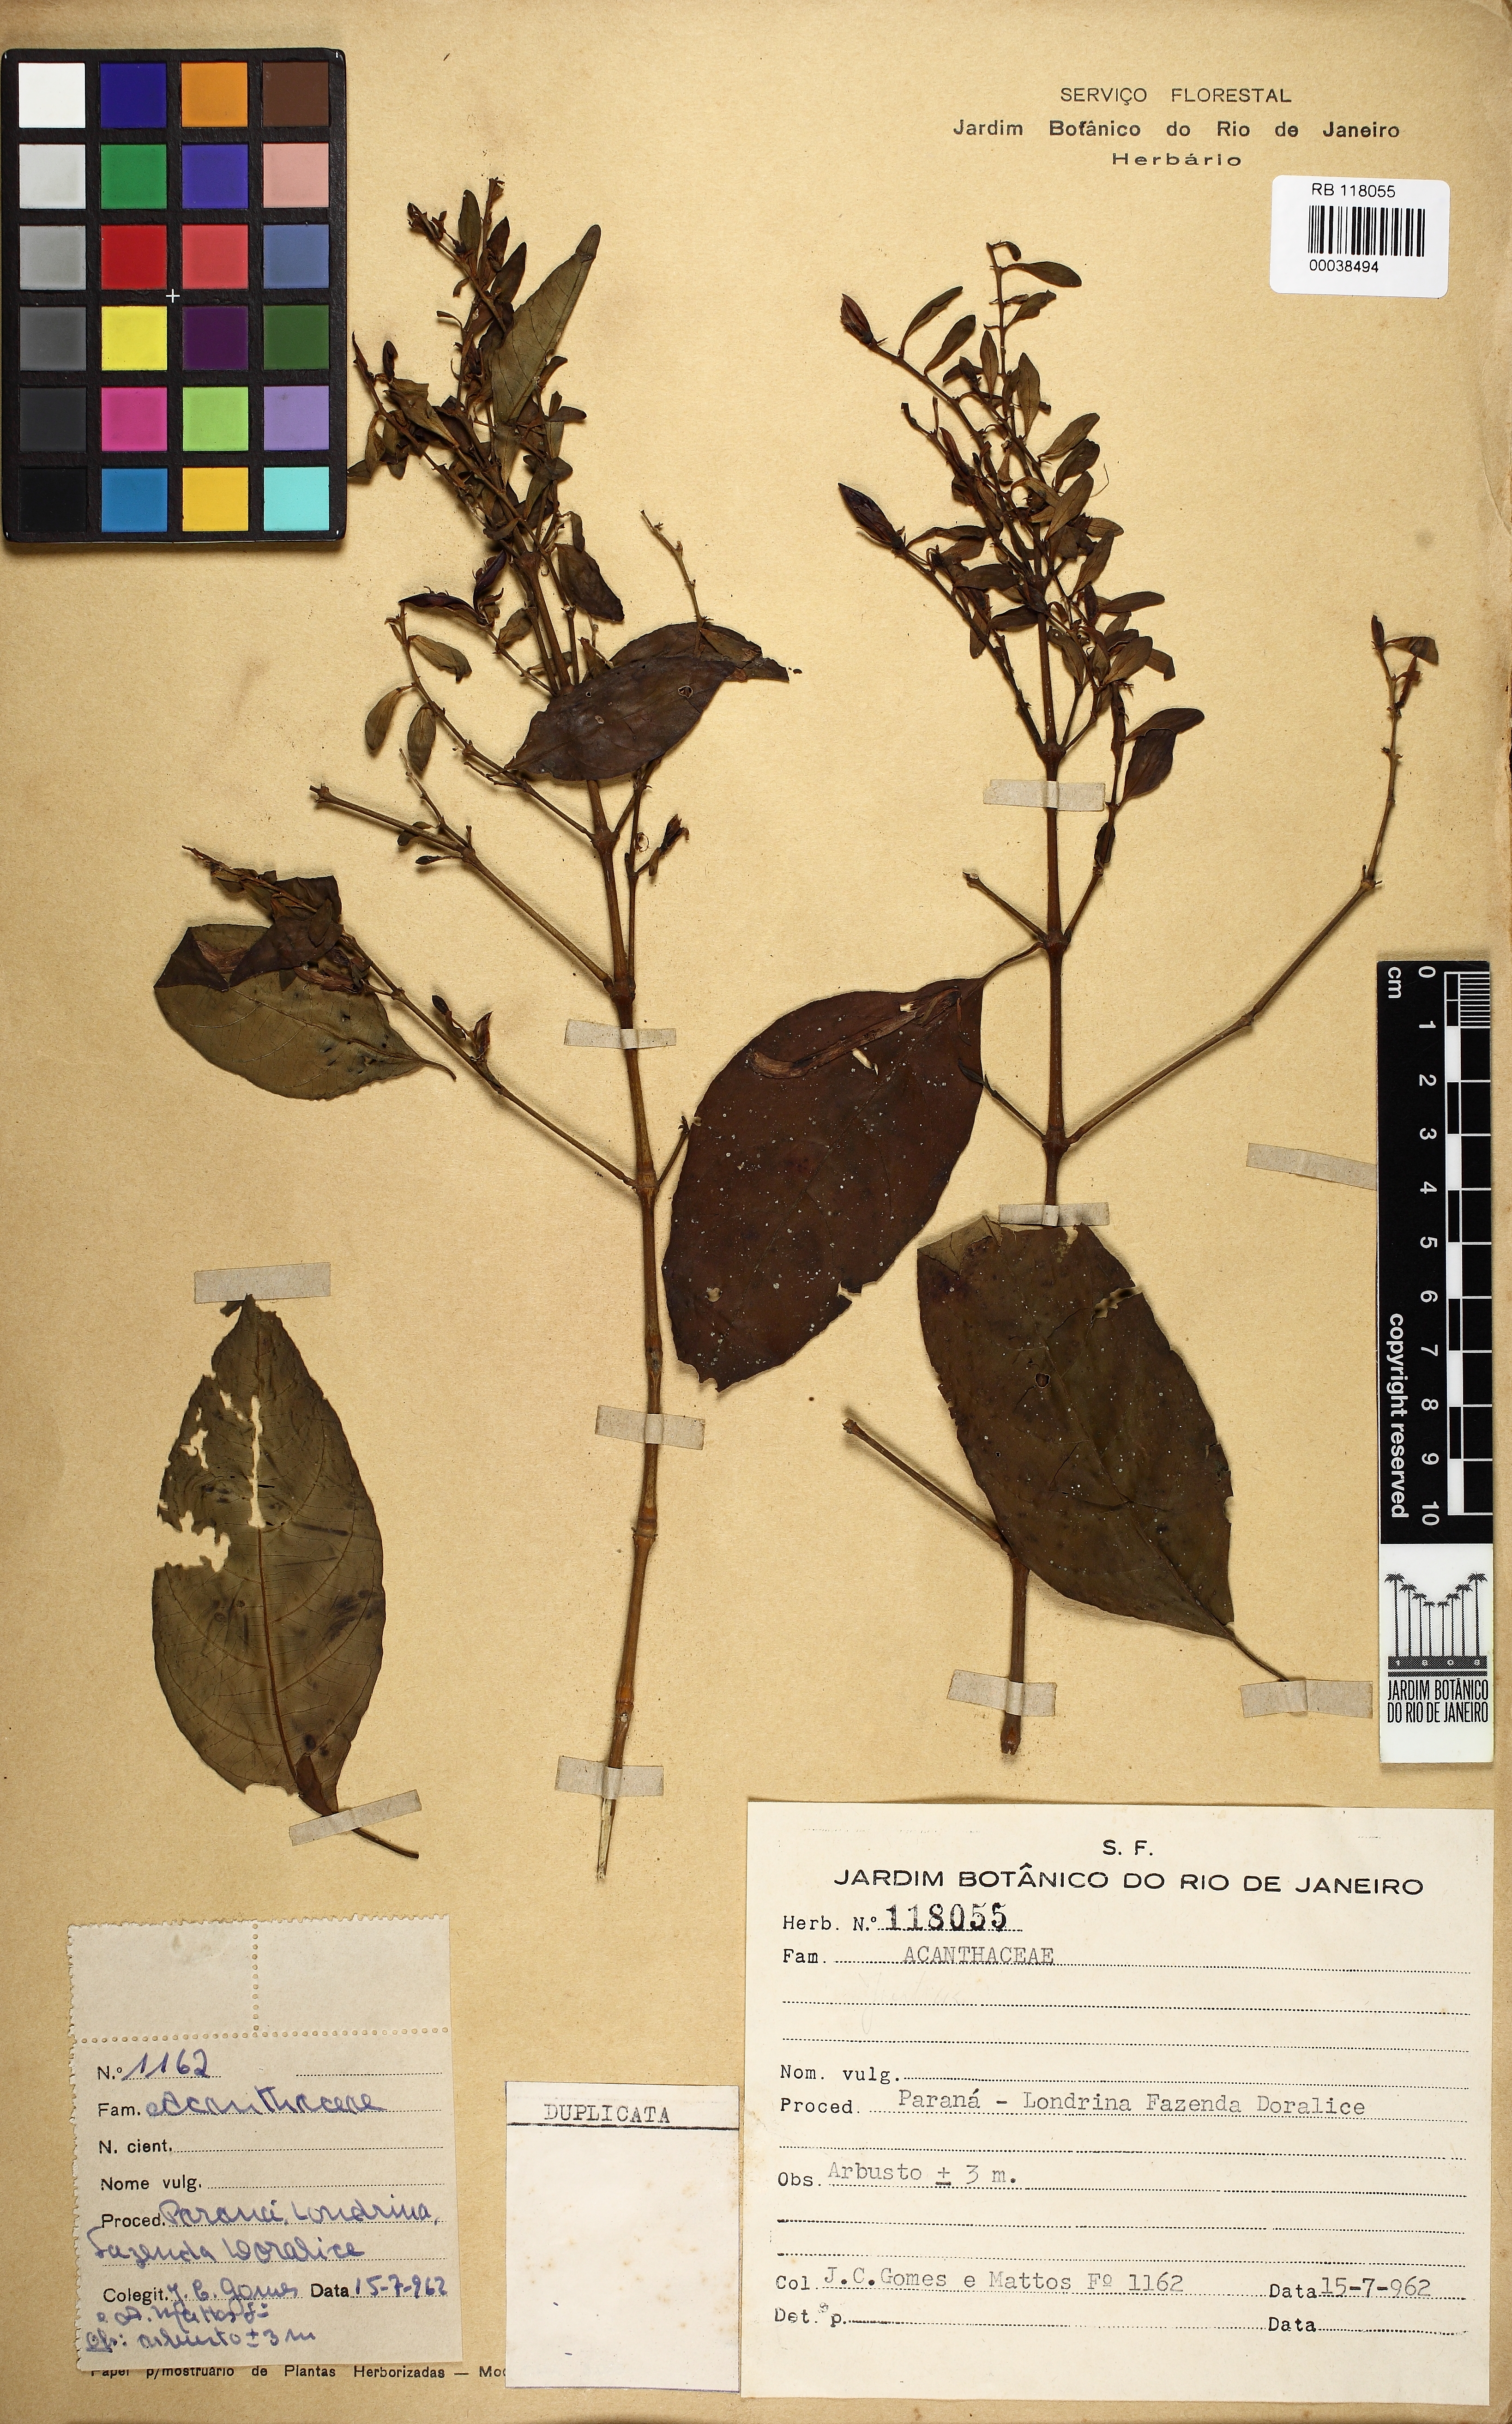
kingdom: Plantae
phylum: Tracheophyta
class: Magnoliopsida
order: Lamiales
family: Acanthaceae
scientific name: Acanthaceae
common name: Acanthaceae
